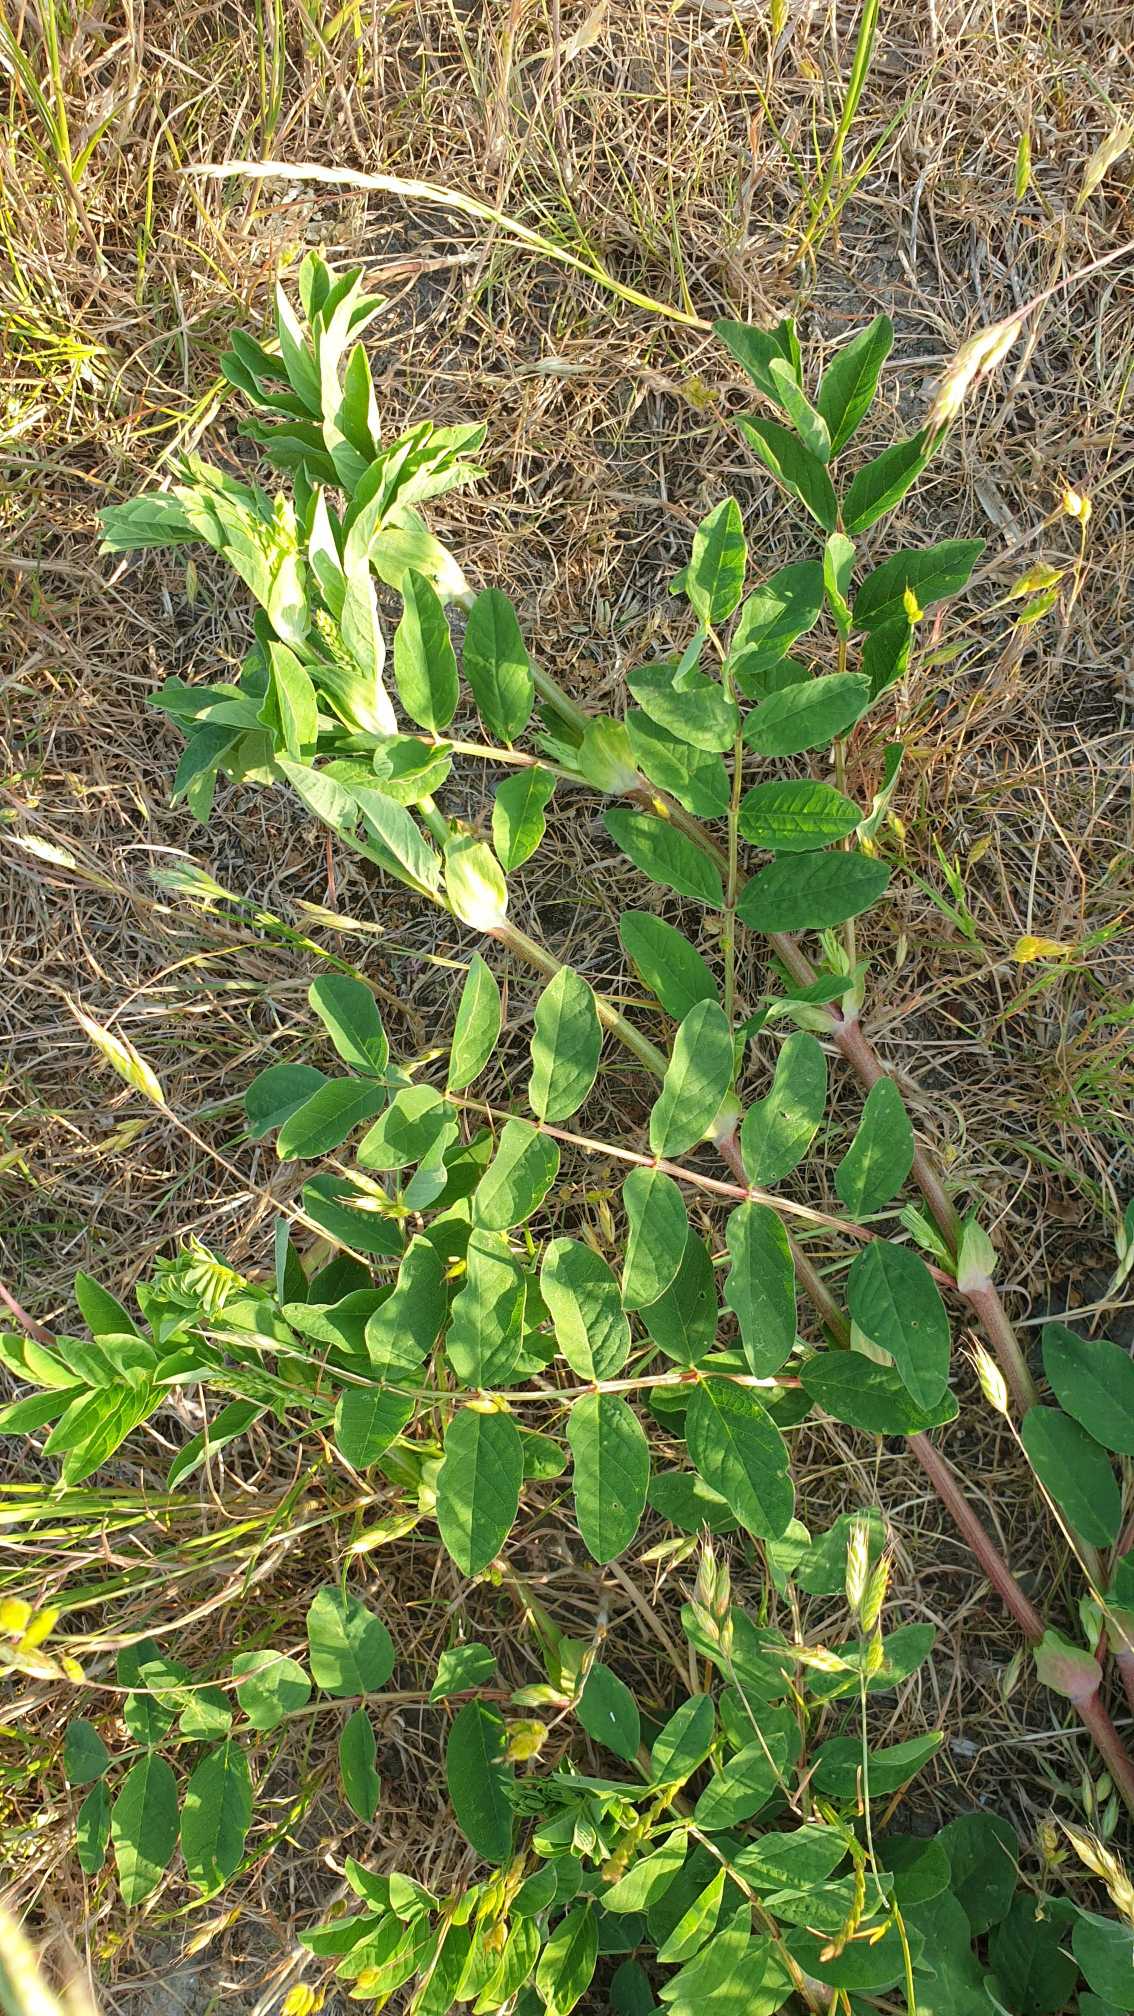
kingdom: Plantae
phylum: Tracheophyta
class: Magnoliopsida
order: Fabales
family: Fabaceae
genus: Astragalus
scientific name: Astragalus glycyphyllos
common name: Sød astragel
